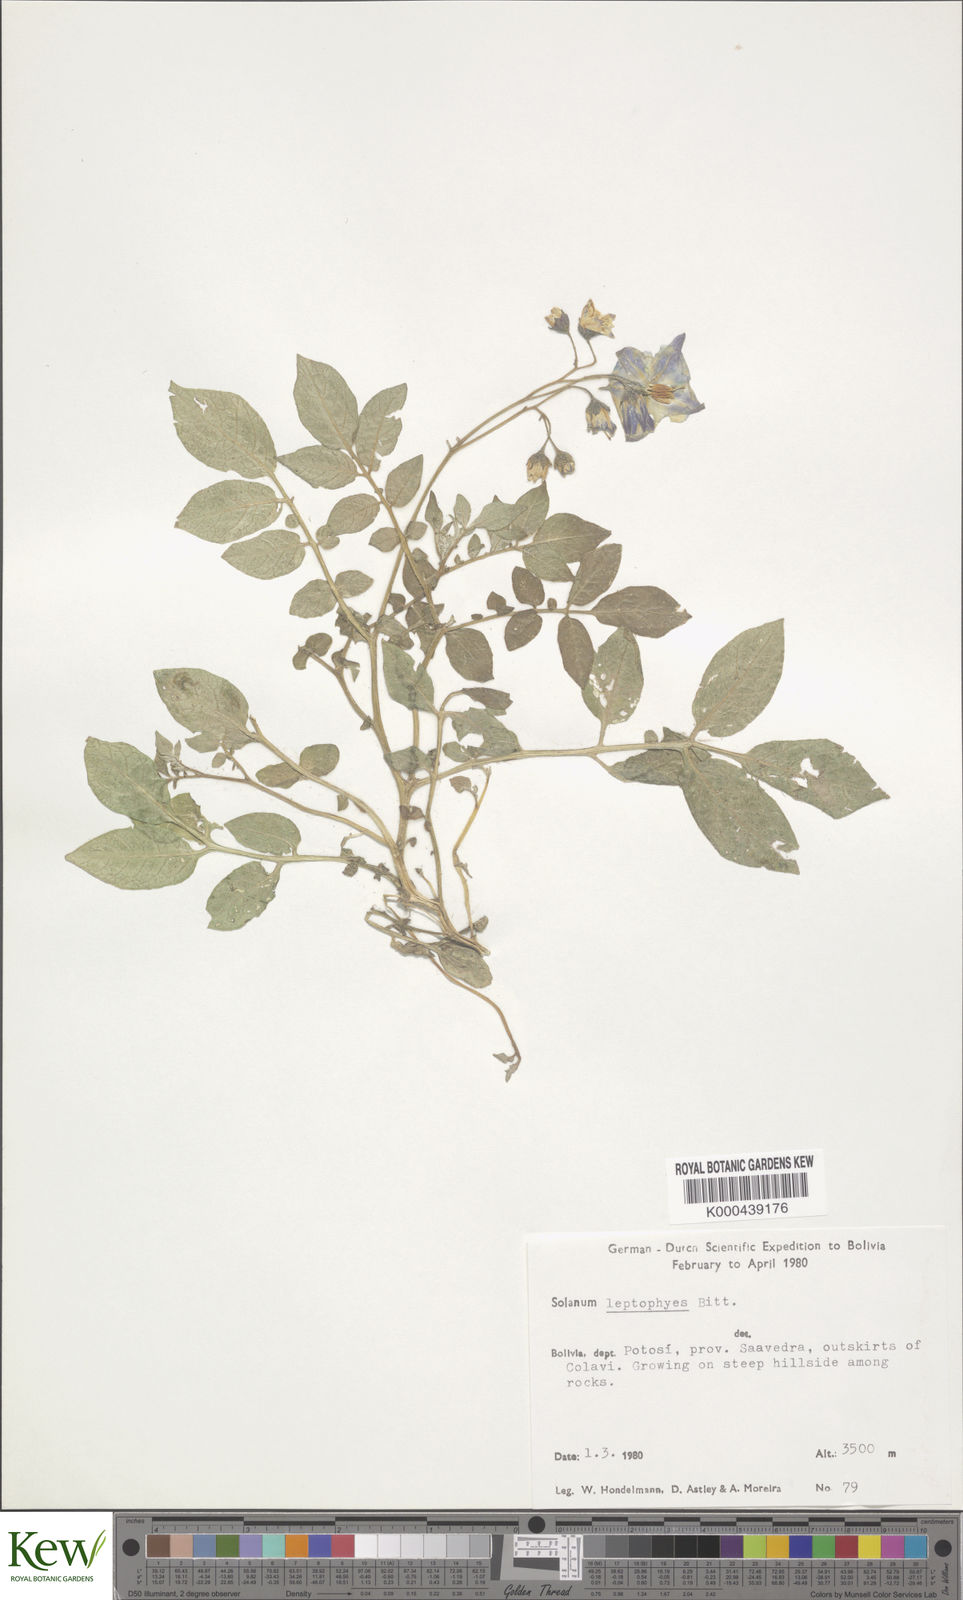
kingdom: Plantae
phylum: Tracheophyta
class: Magnoliopsida
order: Solanales
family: Solanaceae
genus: Solanum
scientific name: Solanum brevicaule
